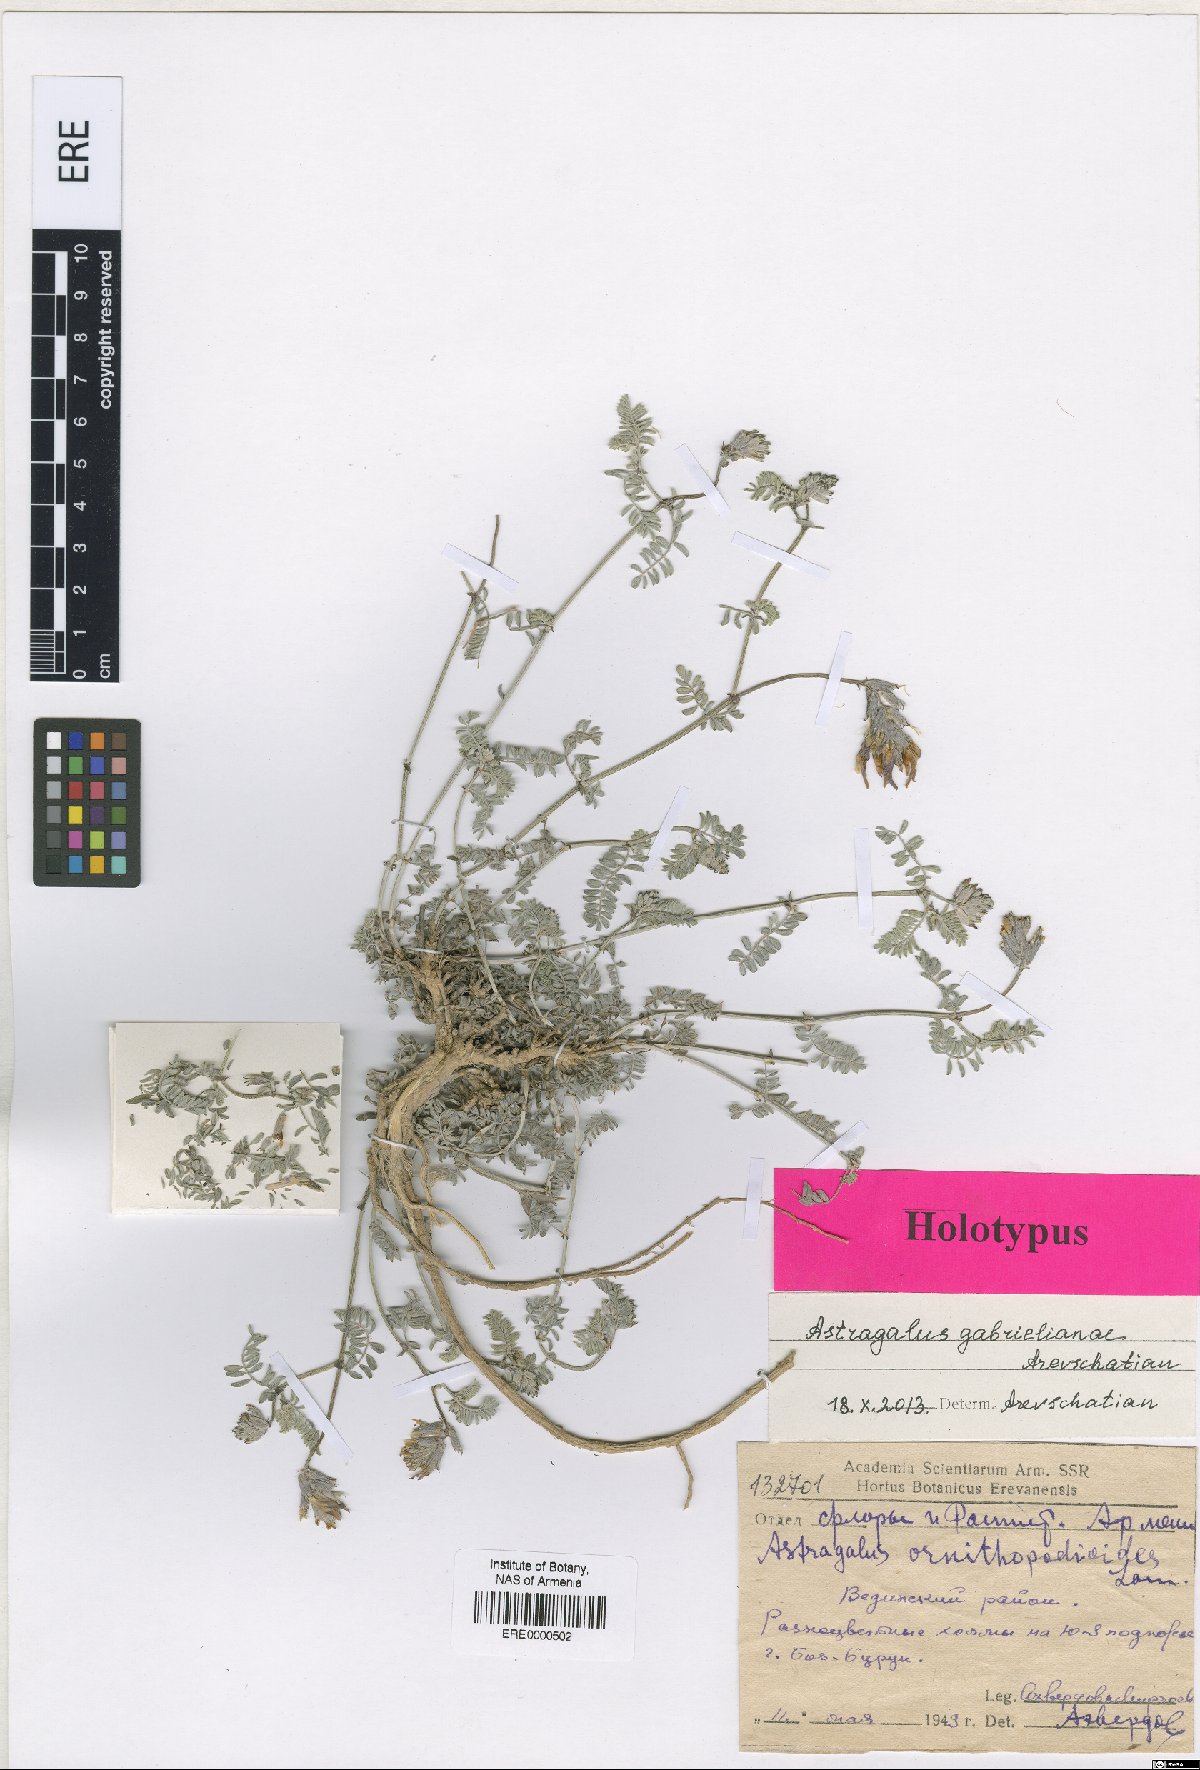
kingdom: Plantae
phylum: Tracheophyta
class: Magnoliopsida
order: Fabales
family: Fabaceae
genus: Astragalus
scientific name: Astragalus gabrelianae
